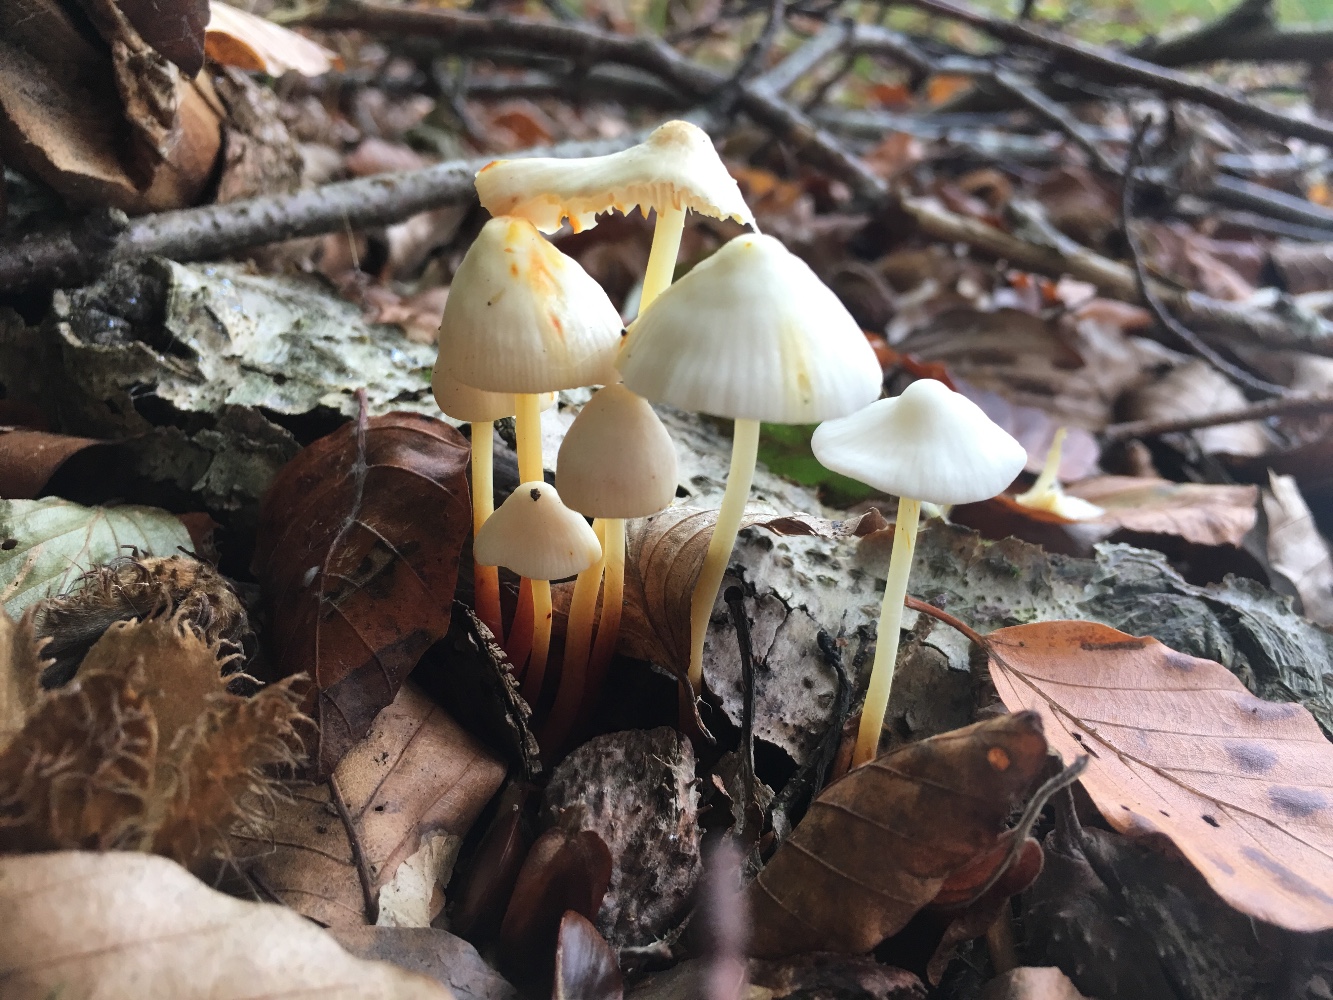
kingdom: Fungi
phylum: Basidiomycota
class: Agaricomycetes
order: Agaricales
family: Mycenaceae
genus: Mycena
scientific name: Mycena crocata
